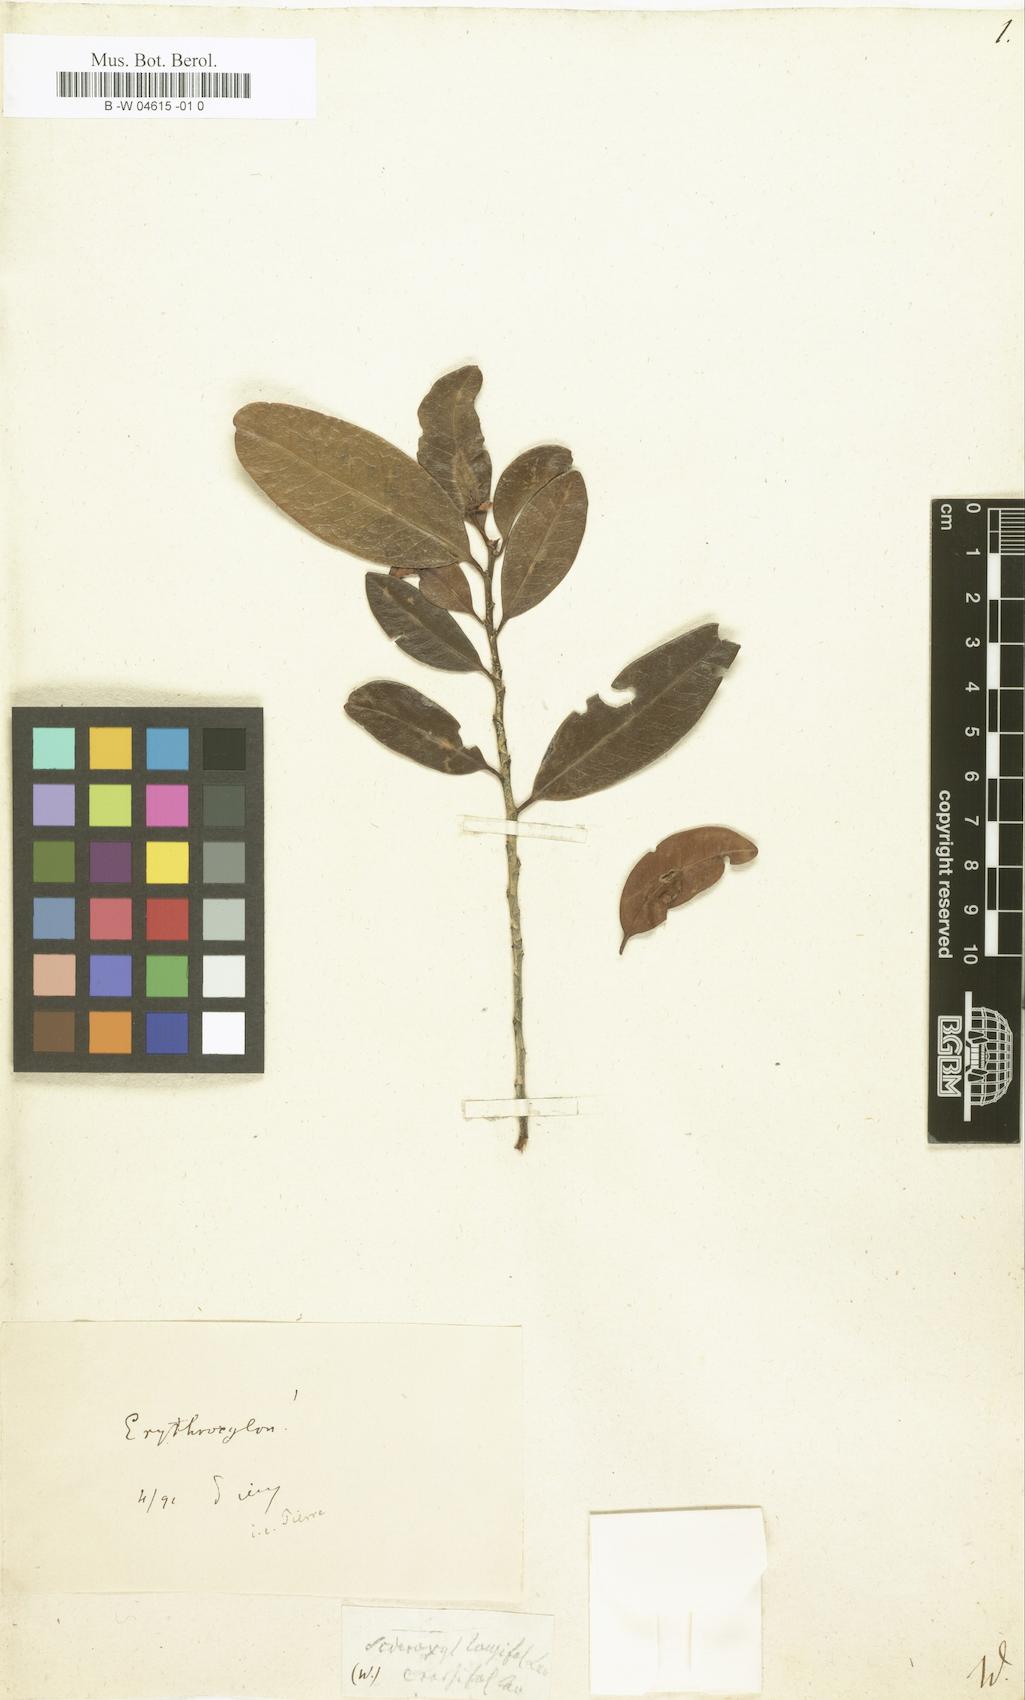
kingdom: Plantae
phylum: Tracheophyta
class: Magnoliopsida
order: Ericales
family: Sapotaceae
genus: Sideroxylon
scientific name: Sideroxylon sessiliflorum
